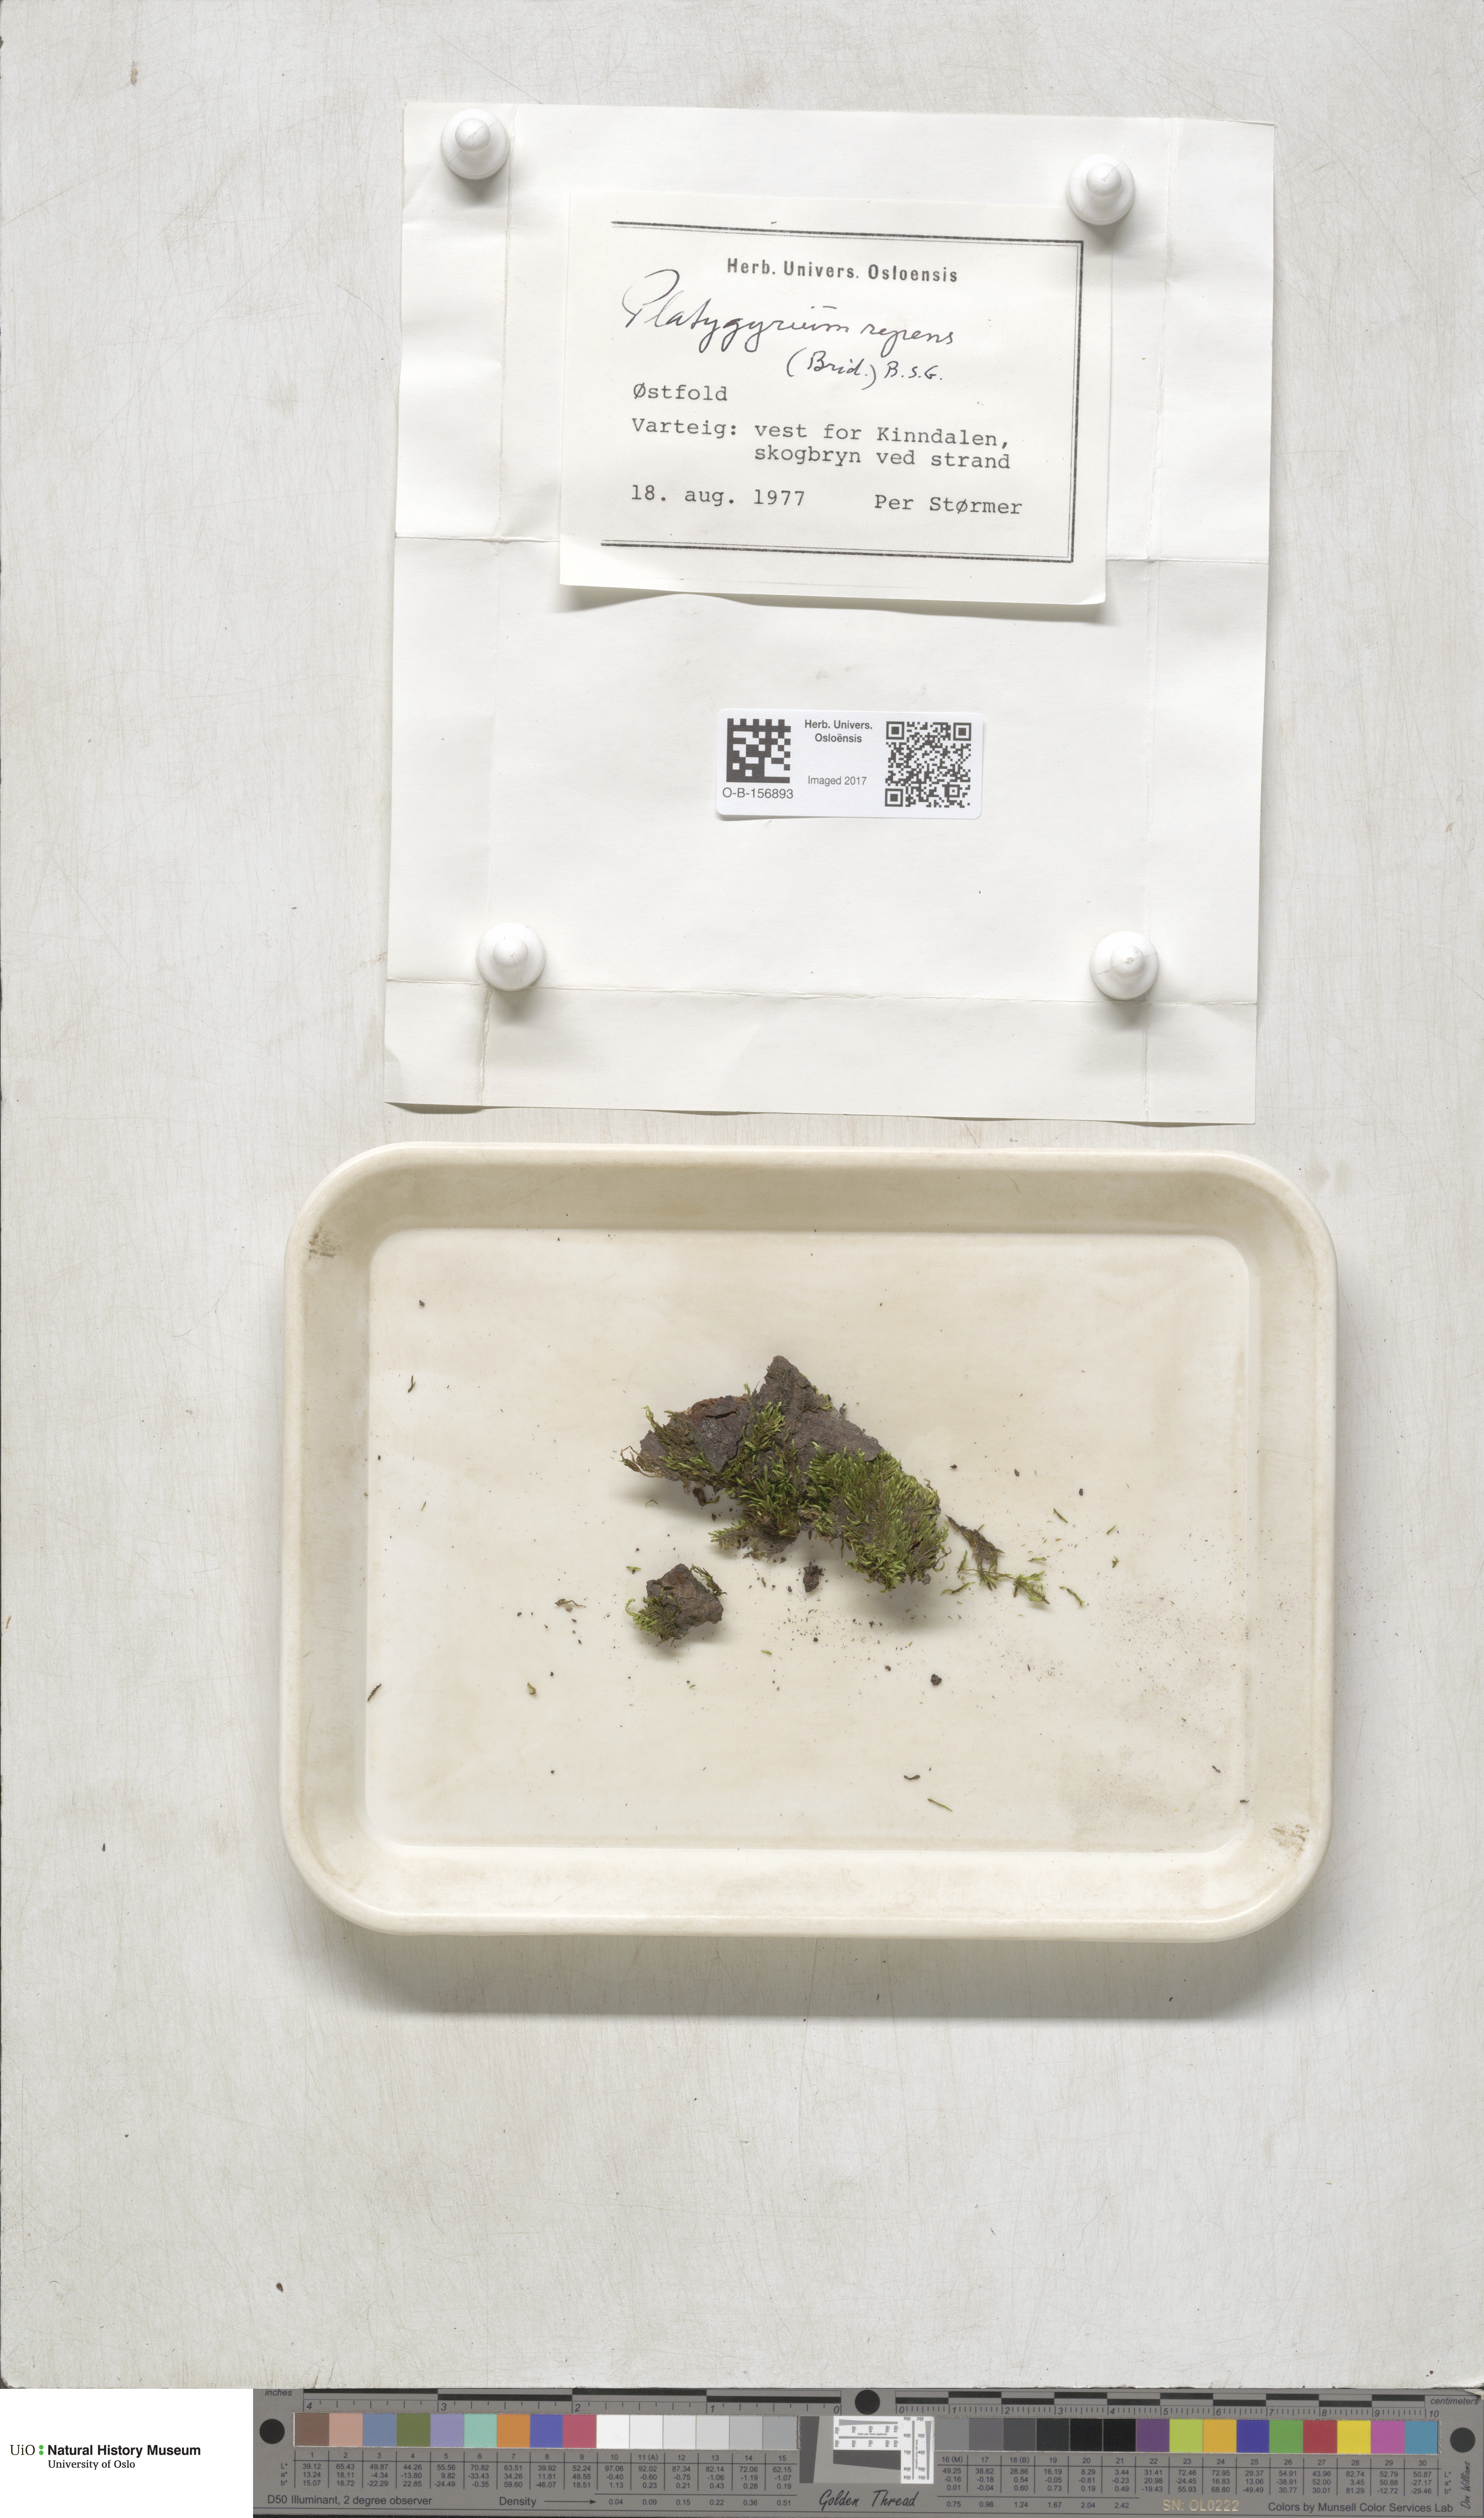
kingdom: Plantae
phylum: Bryophyta
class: Bryopsida
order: Hypnales
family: Pylaisiadelphaceae
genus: Platygyrium
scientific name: Platygyrium repens
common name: Flat-brocade moss
